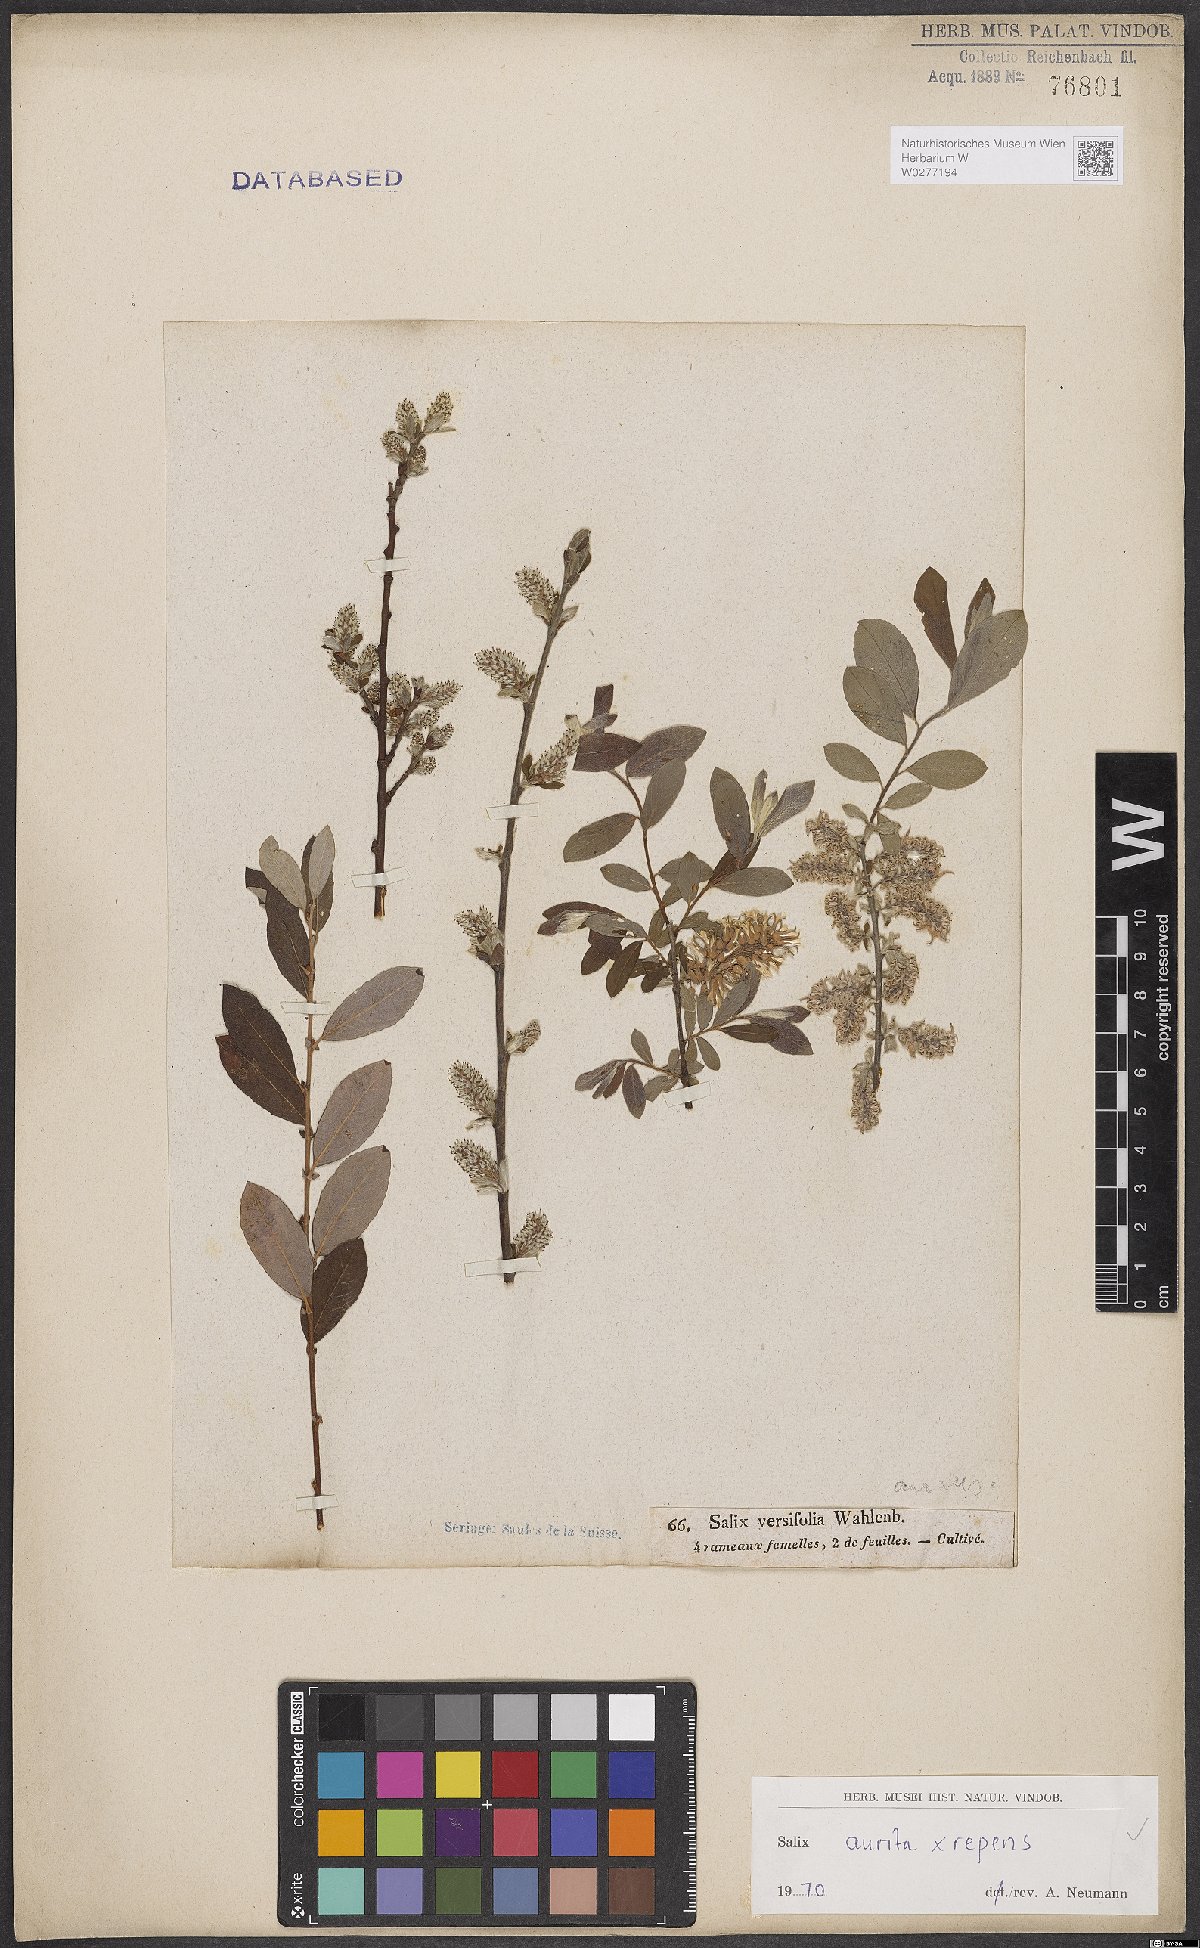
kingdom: Plantae
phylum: Tracheophyta
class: Magnoliopsida
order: Malpighiales
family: Salicaceae
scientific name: Salicaceae
